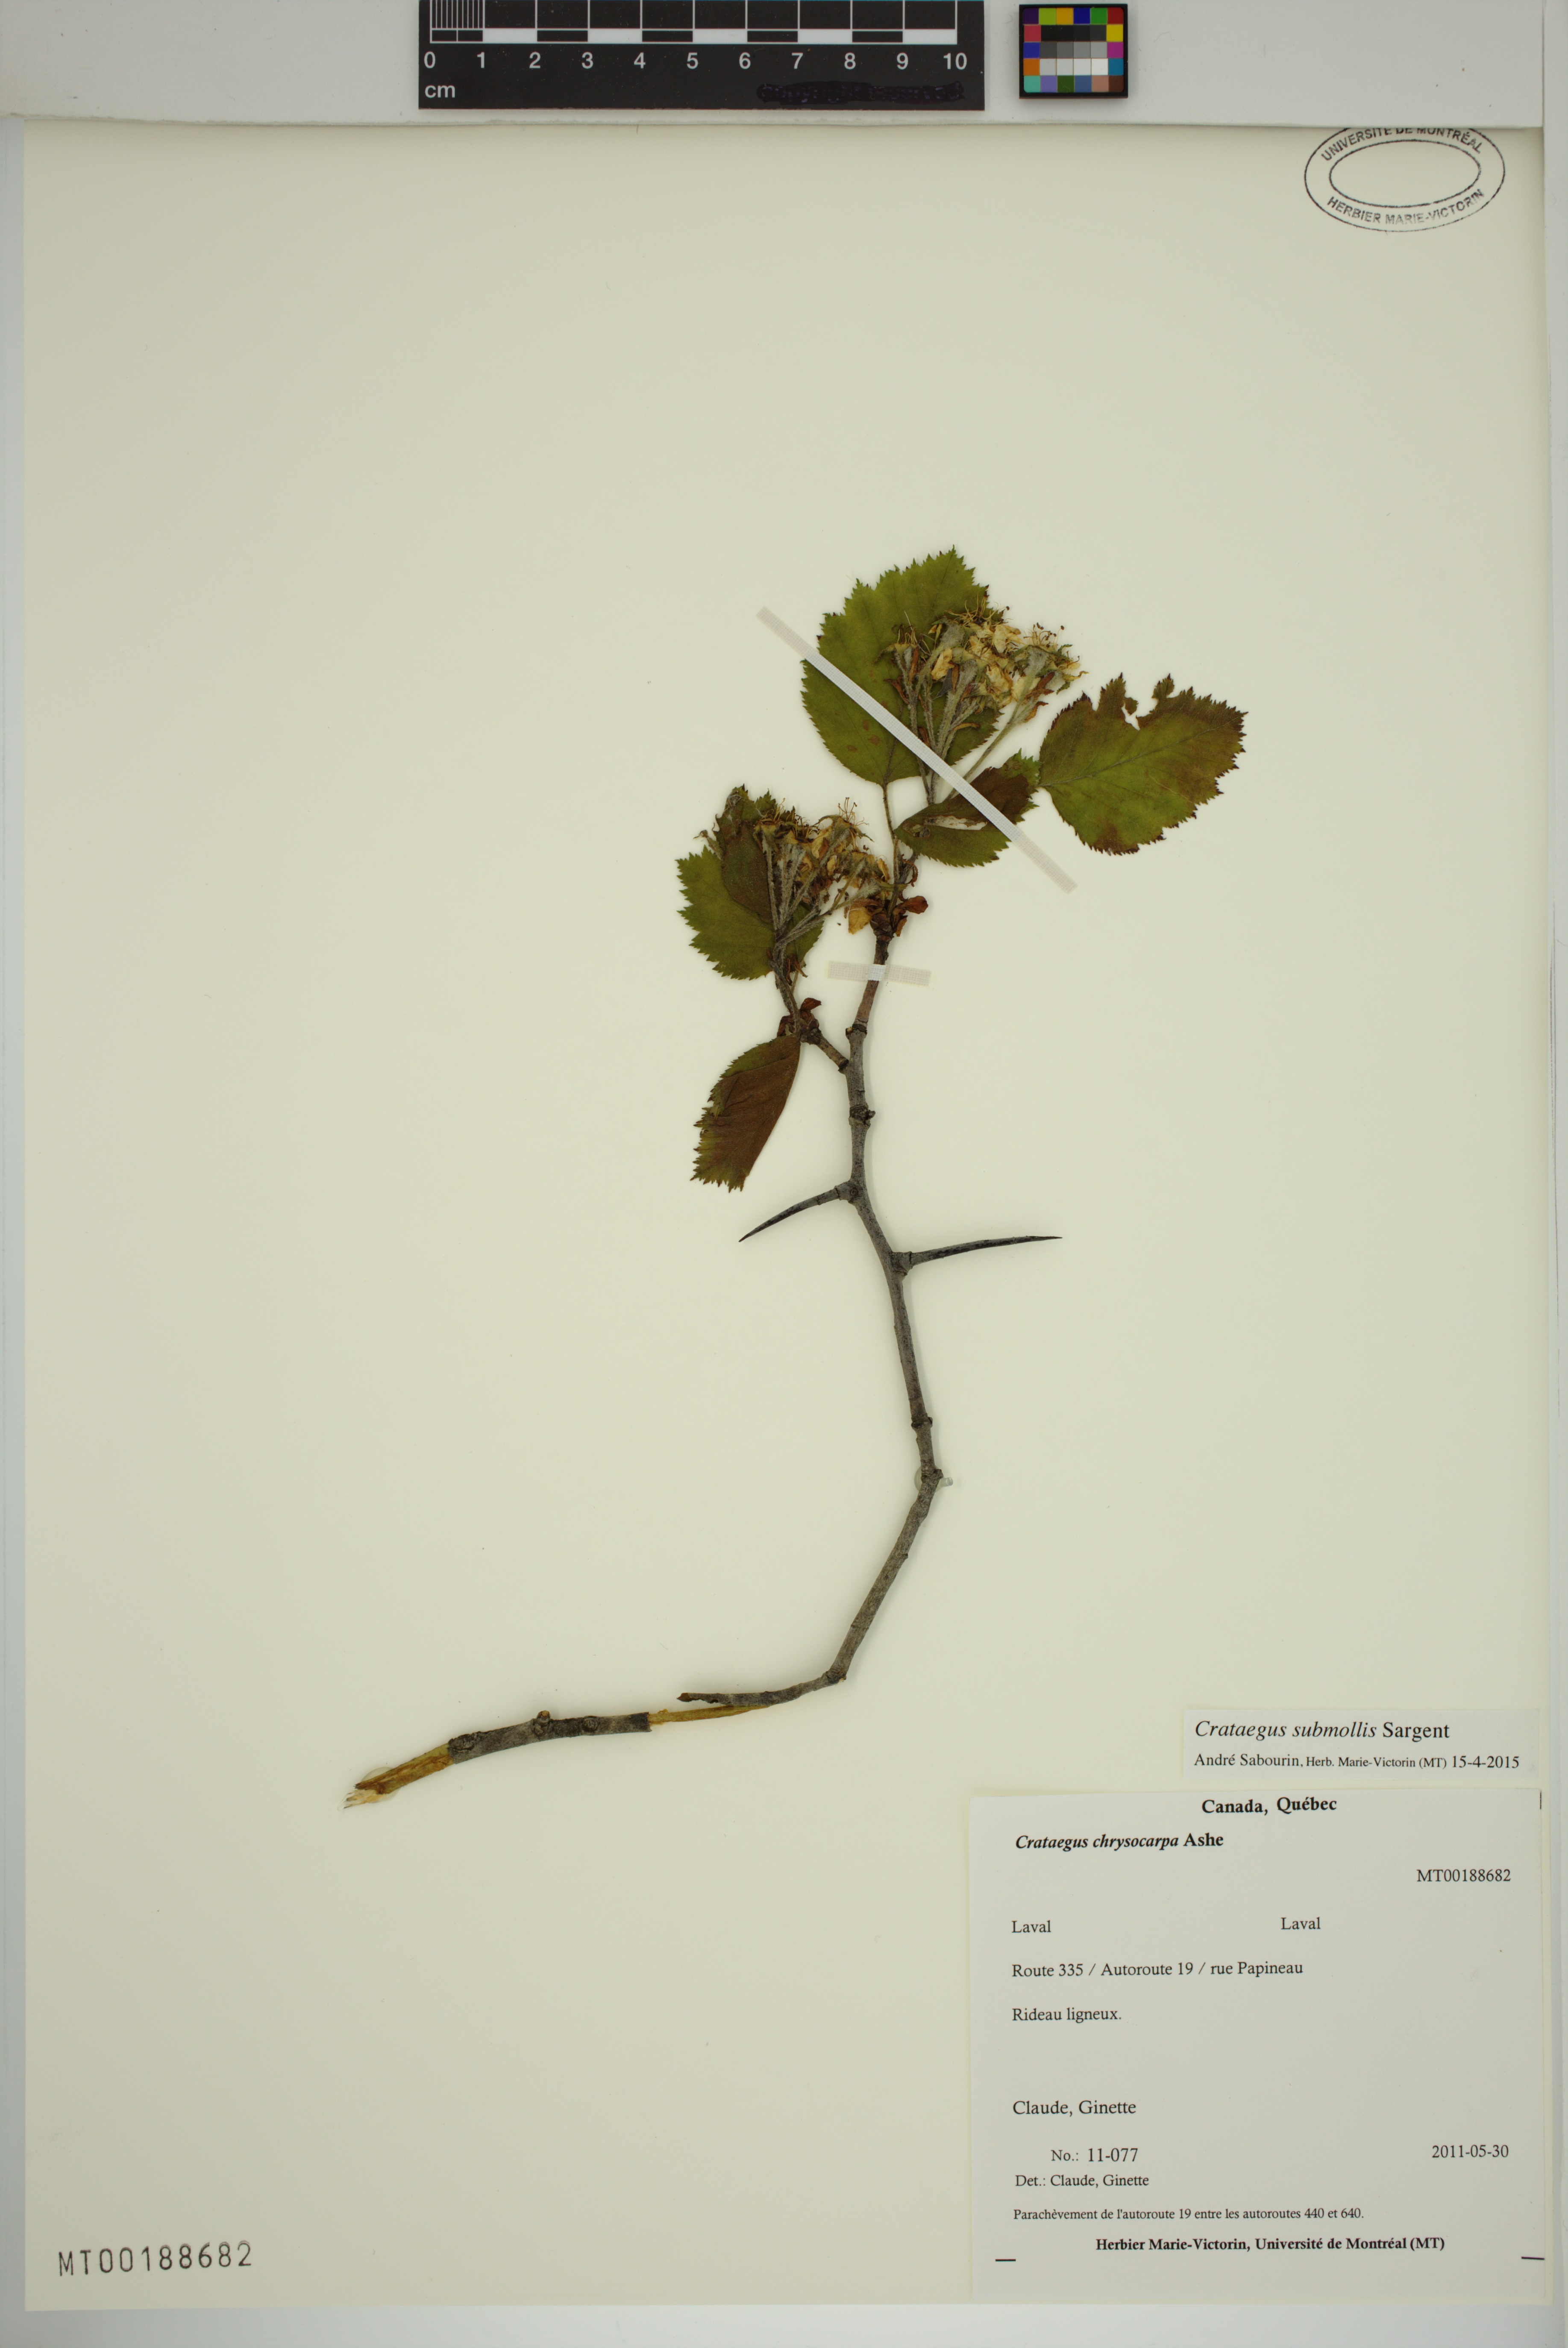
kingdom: Plantae
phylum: Tracheophyta
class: Magnoliopsida
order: Rosales
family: Rosaceae
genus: Crataegus
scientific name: Crataegus submollis
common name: Hairy cockspurthorn
